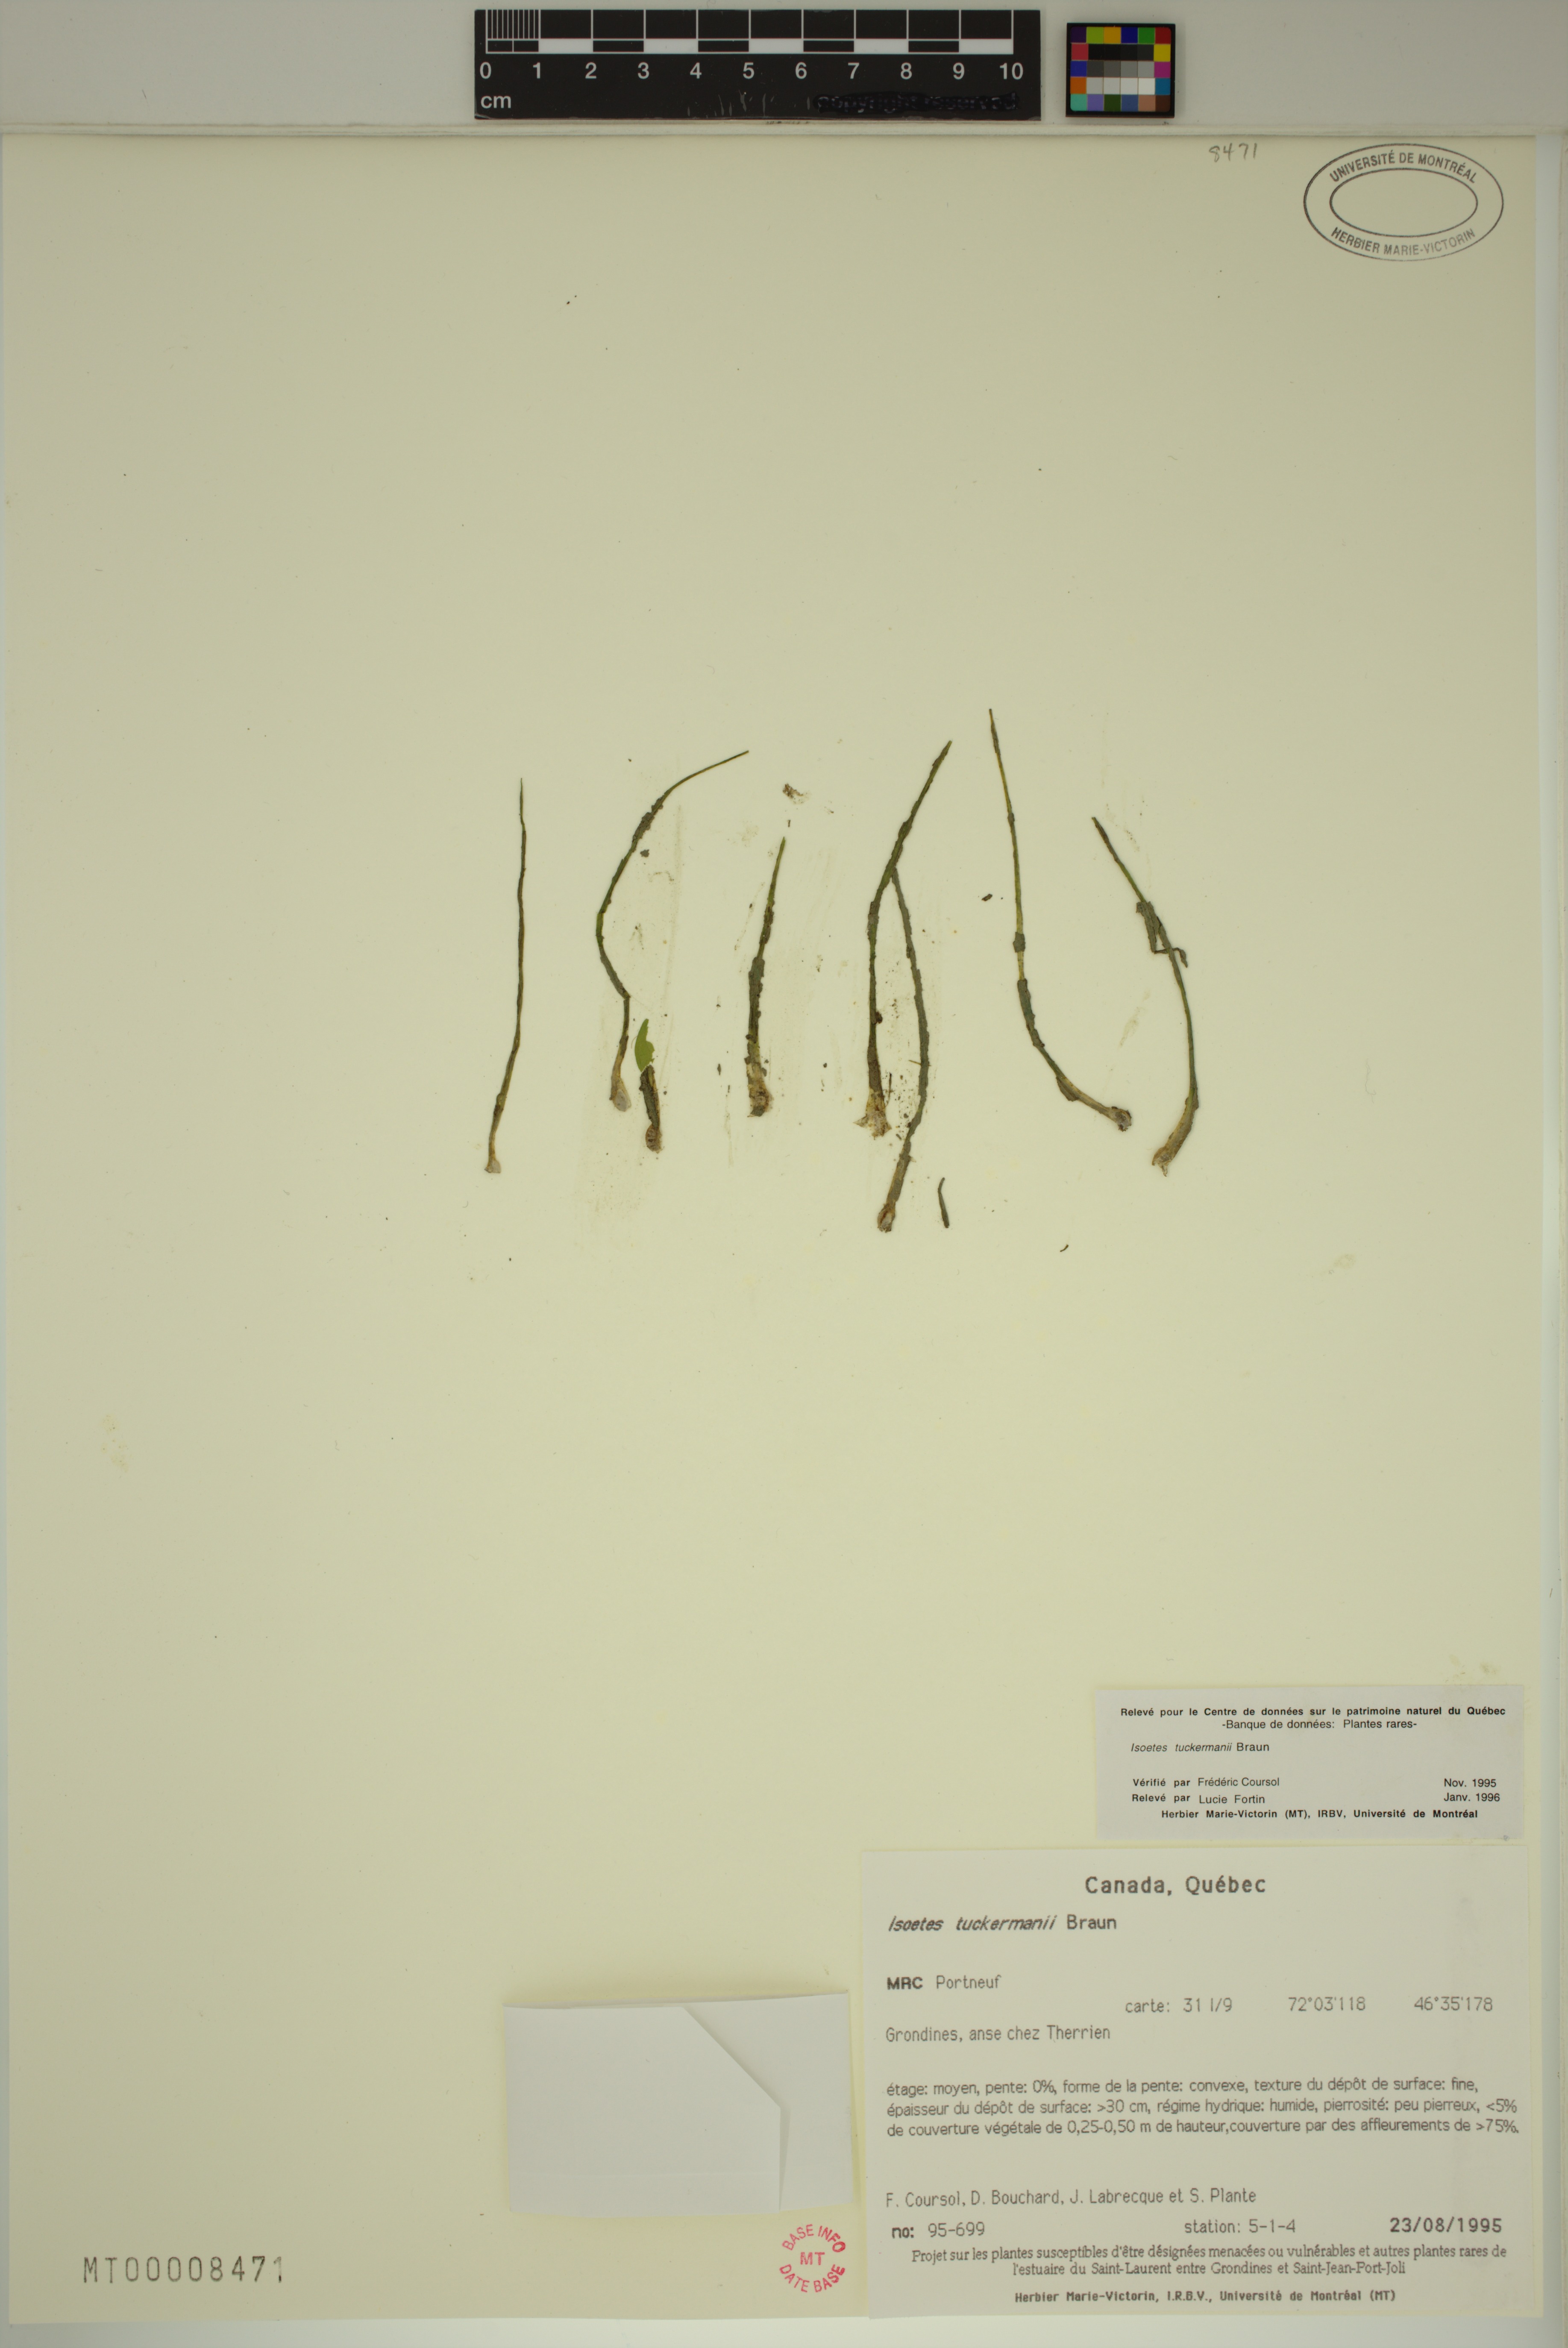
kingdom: Plantae
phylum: Tracheophyta
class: Lycopodiopsida
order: Isoetales
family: Isoetaceae
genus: Isoetes
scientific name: Isoetes laurentiana
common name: St. lawrence quillwort
